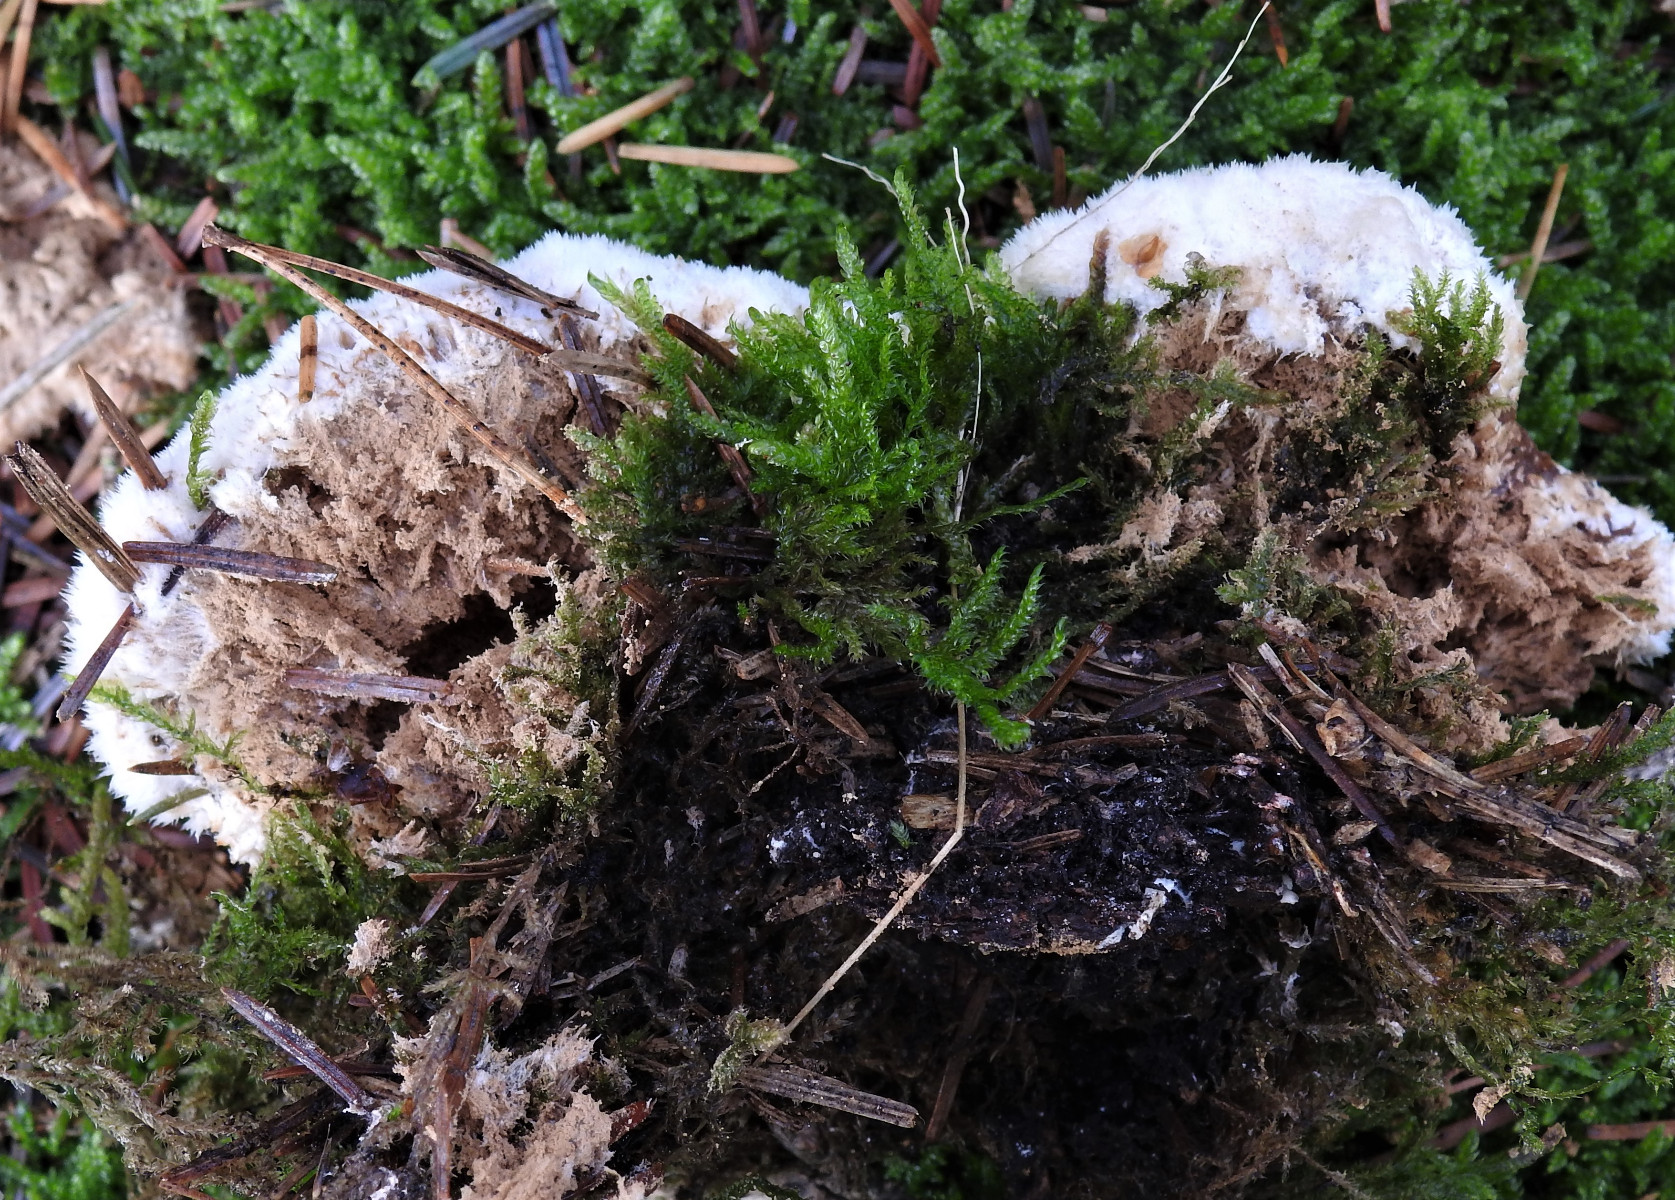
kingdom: Fungi
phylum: Basidiomycota
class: Agaricomycetes
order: Polyporales
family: Dacryobolaceae
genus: Postia
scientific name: Postia ptychogaster
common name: støvende kødporesvamp
